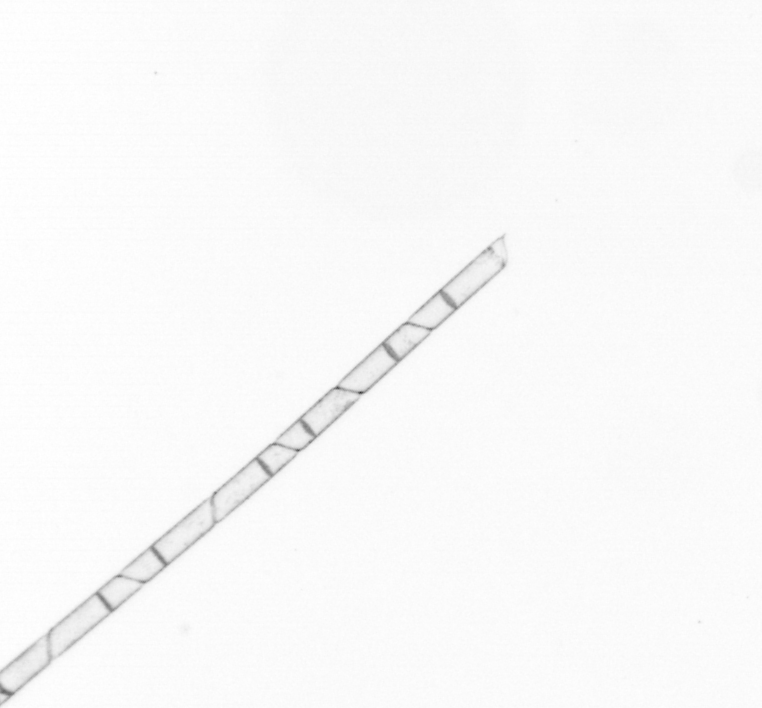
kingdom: Chromista
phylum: Ochrophyta
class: Bacillariophyceae
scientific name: Bacillariophyceae
